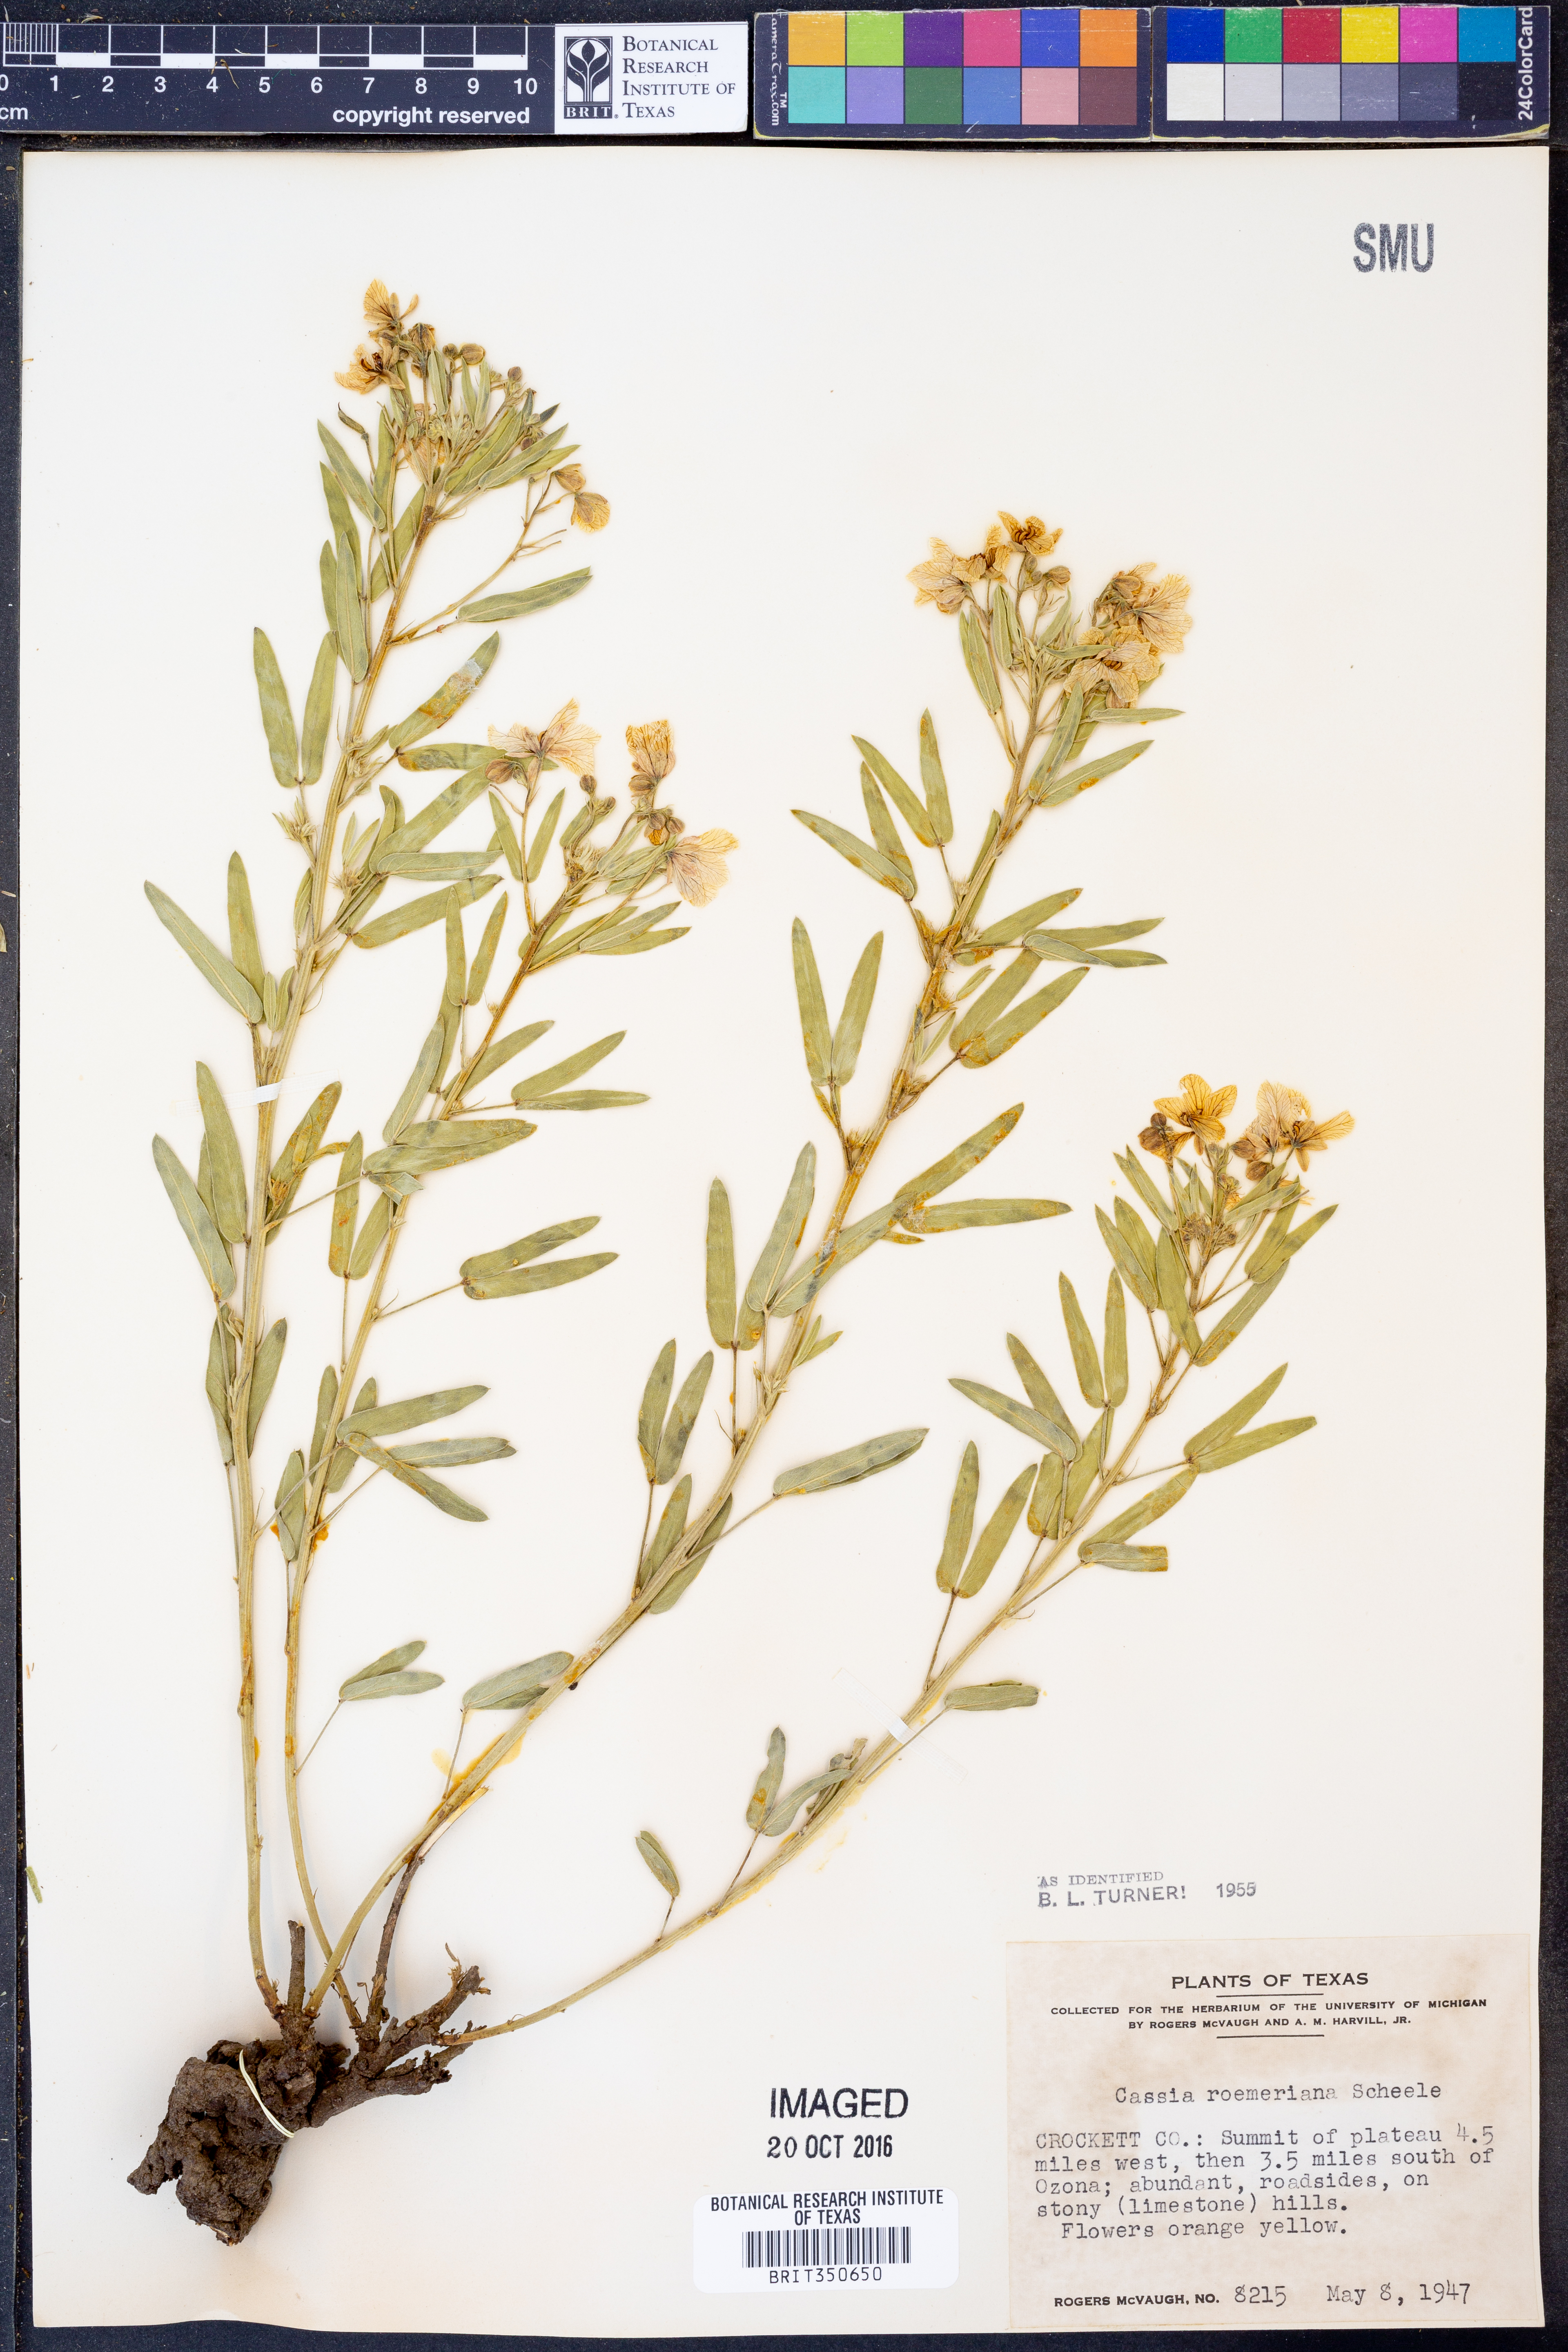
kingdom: Plantae
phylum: Tracheophyta
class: Magnoliopsida
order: Fabales
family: Fabaceae
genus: Senna
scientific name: Senna roemeriana
